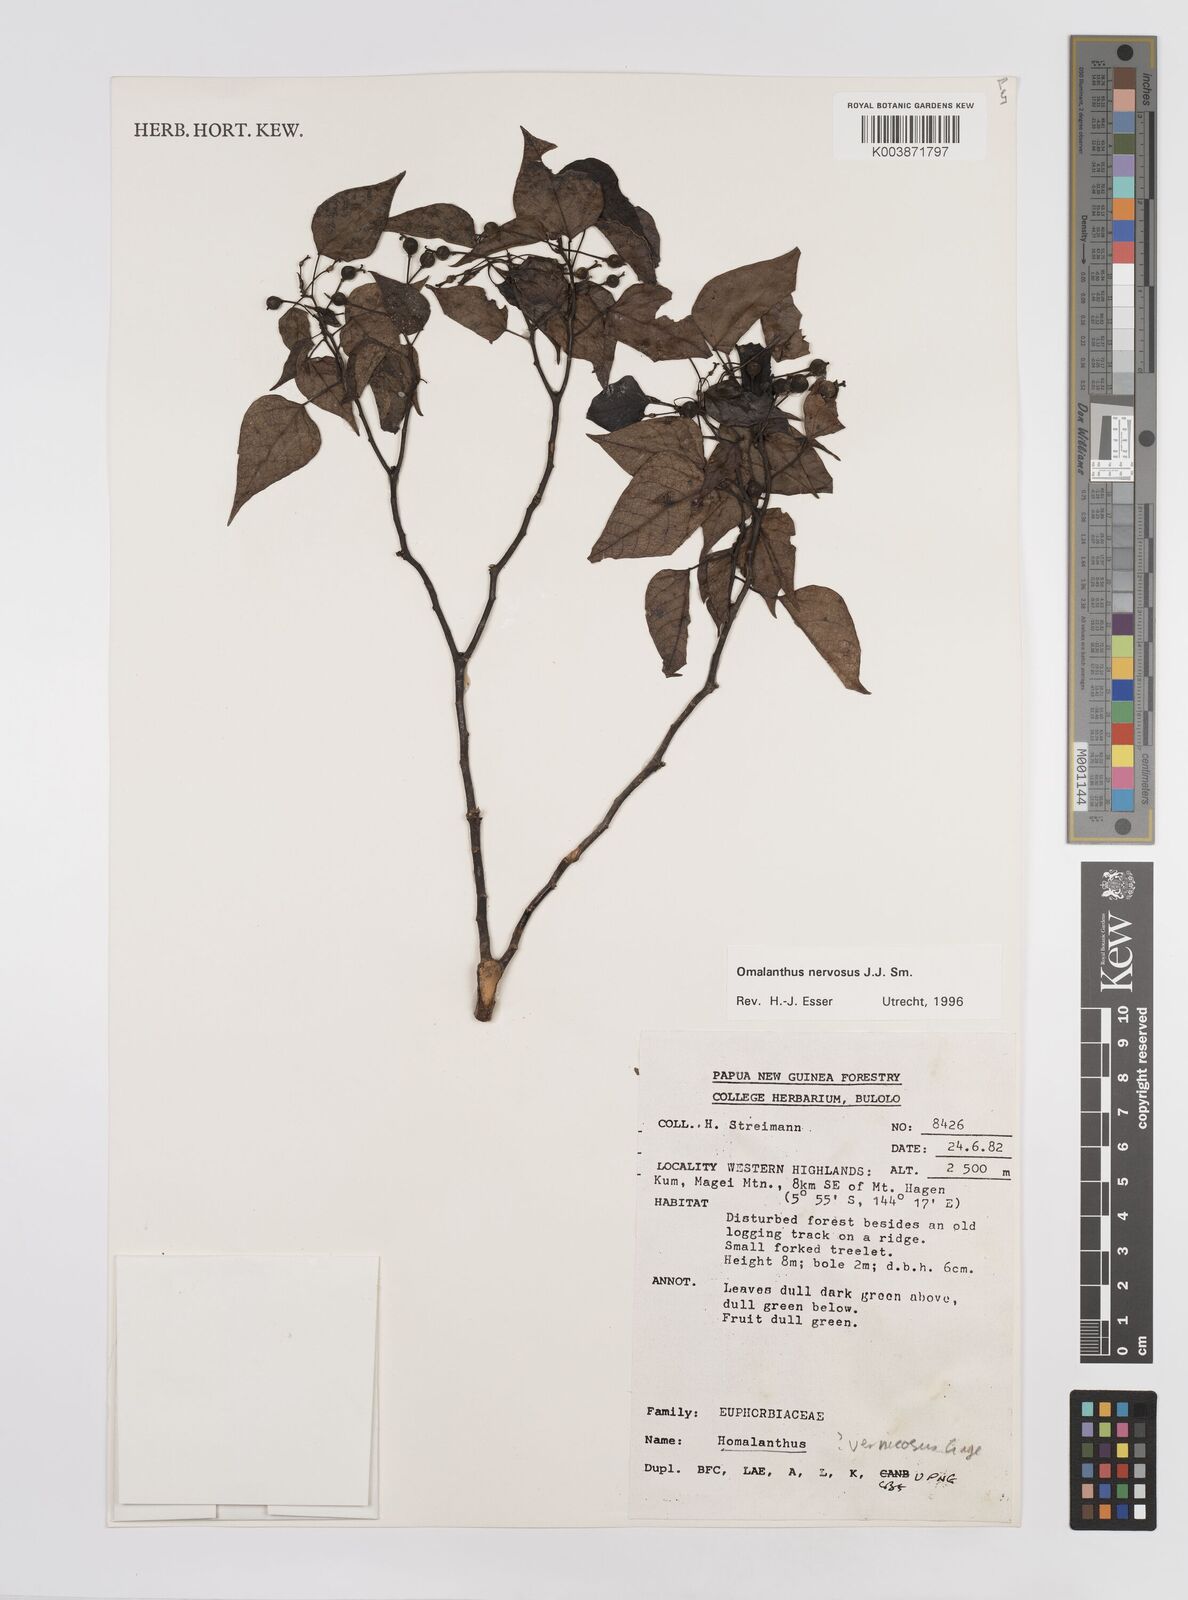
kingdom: Plantae
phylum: Tracheophyta
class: Magnoliopsida
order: Malpighiales
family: Euphorbiaceae
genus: Homalanthus
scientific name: Homalanthus nervosus
